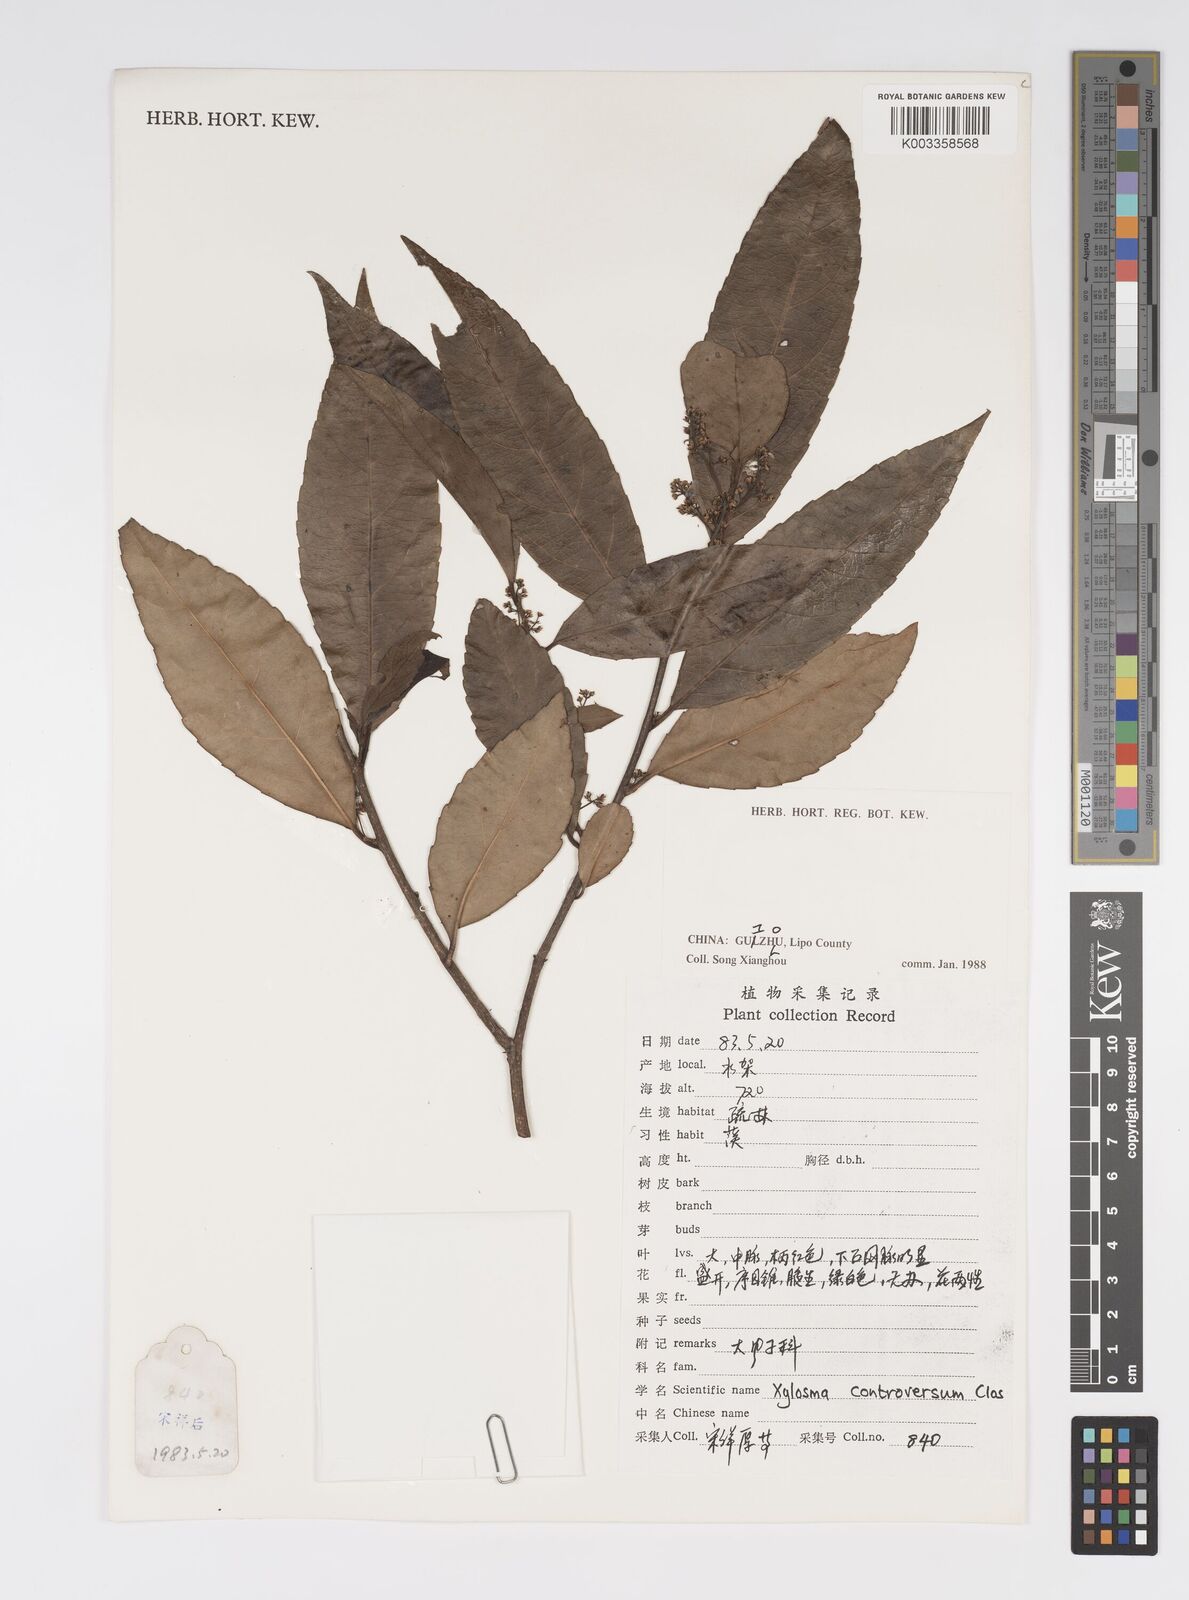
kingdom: Plantae
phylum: Tracheophyta
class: Magnoliopsida
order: Malpighiales
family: Salicaceae
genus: Xylosma
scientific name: Xylosma controversa
